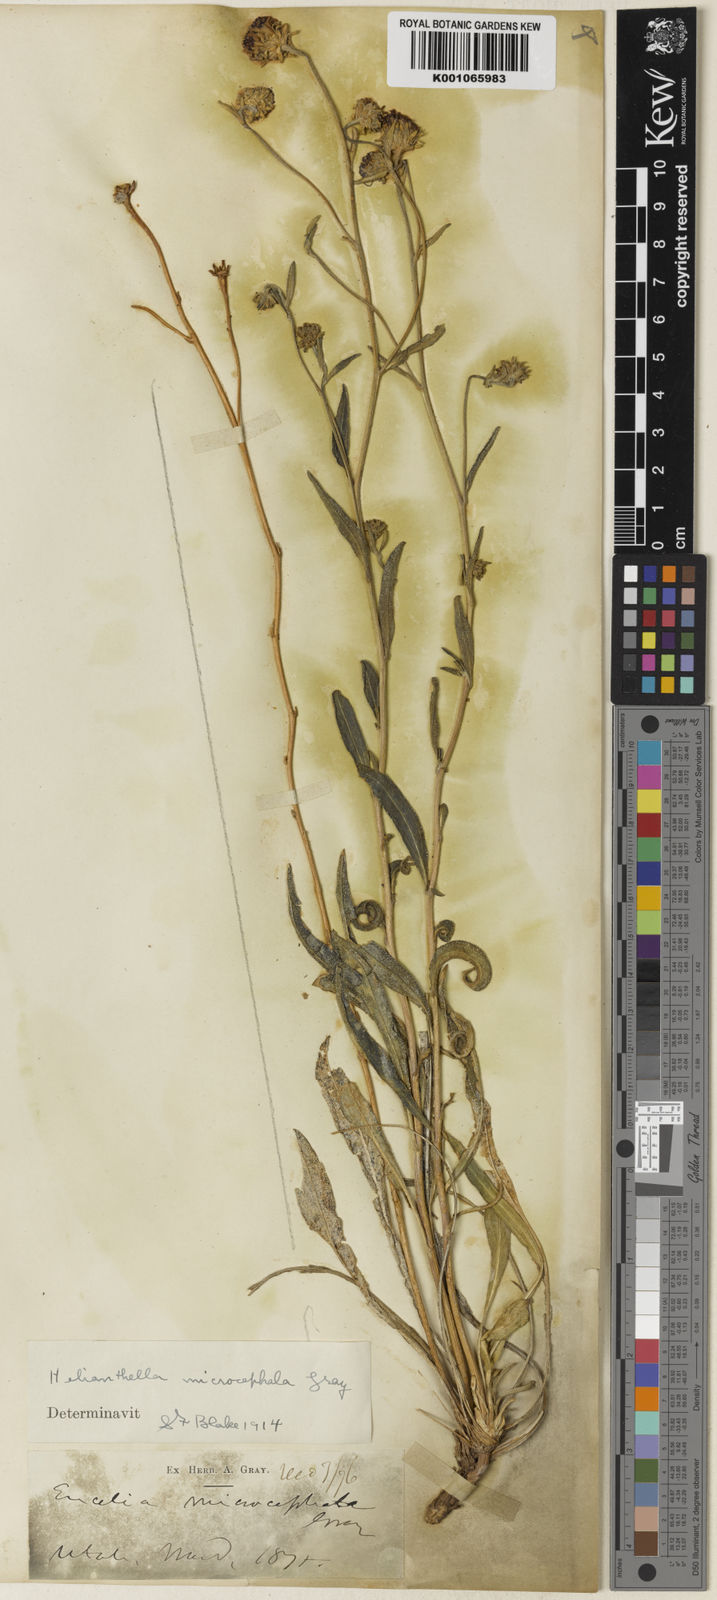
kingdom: Plantae
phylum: Tracheophyta
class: Magnoliopsida
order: Asterales
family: Asteraceae
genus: Helianthella
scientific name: Helianthella microcephala
